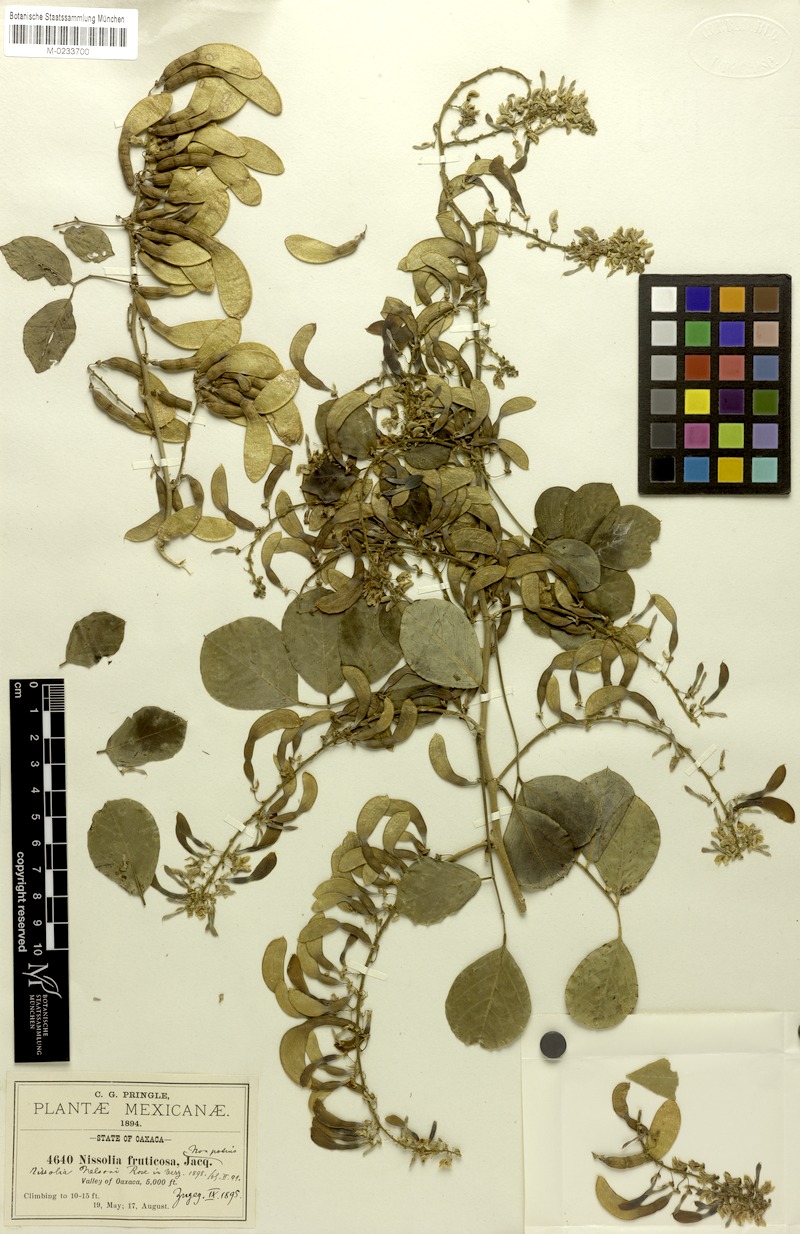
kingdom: Plantae
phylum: Tracheophyta
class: Magnoliopsida
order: Fabales
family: Fabaceae
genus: Nissolia
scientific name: Nissolia fruticosa
